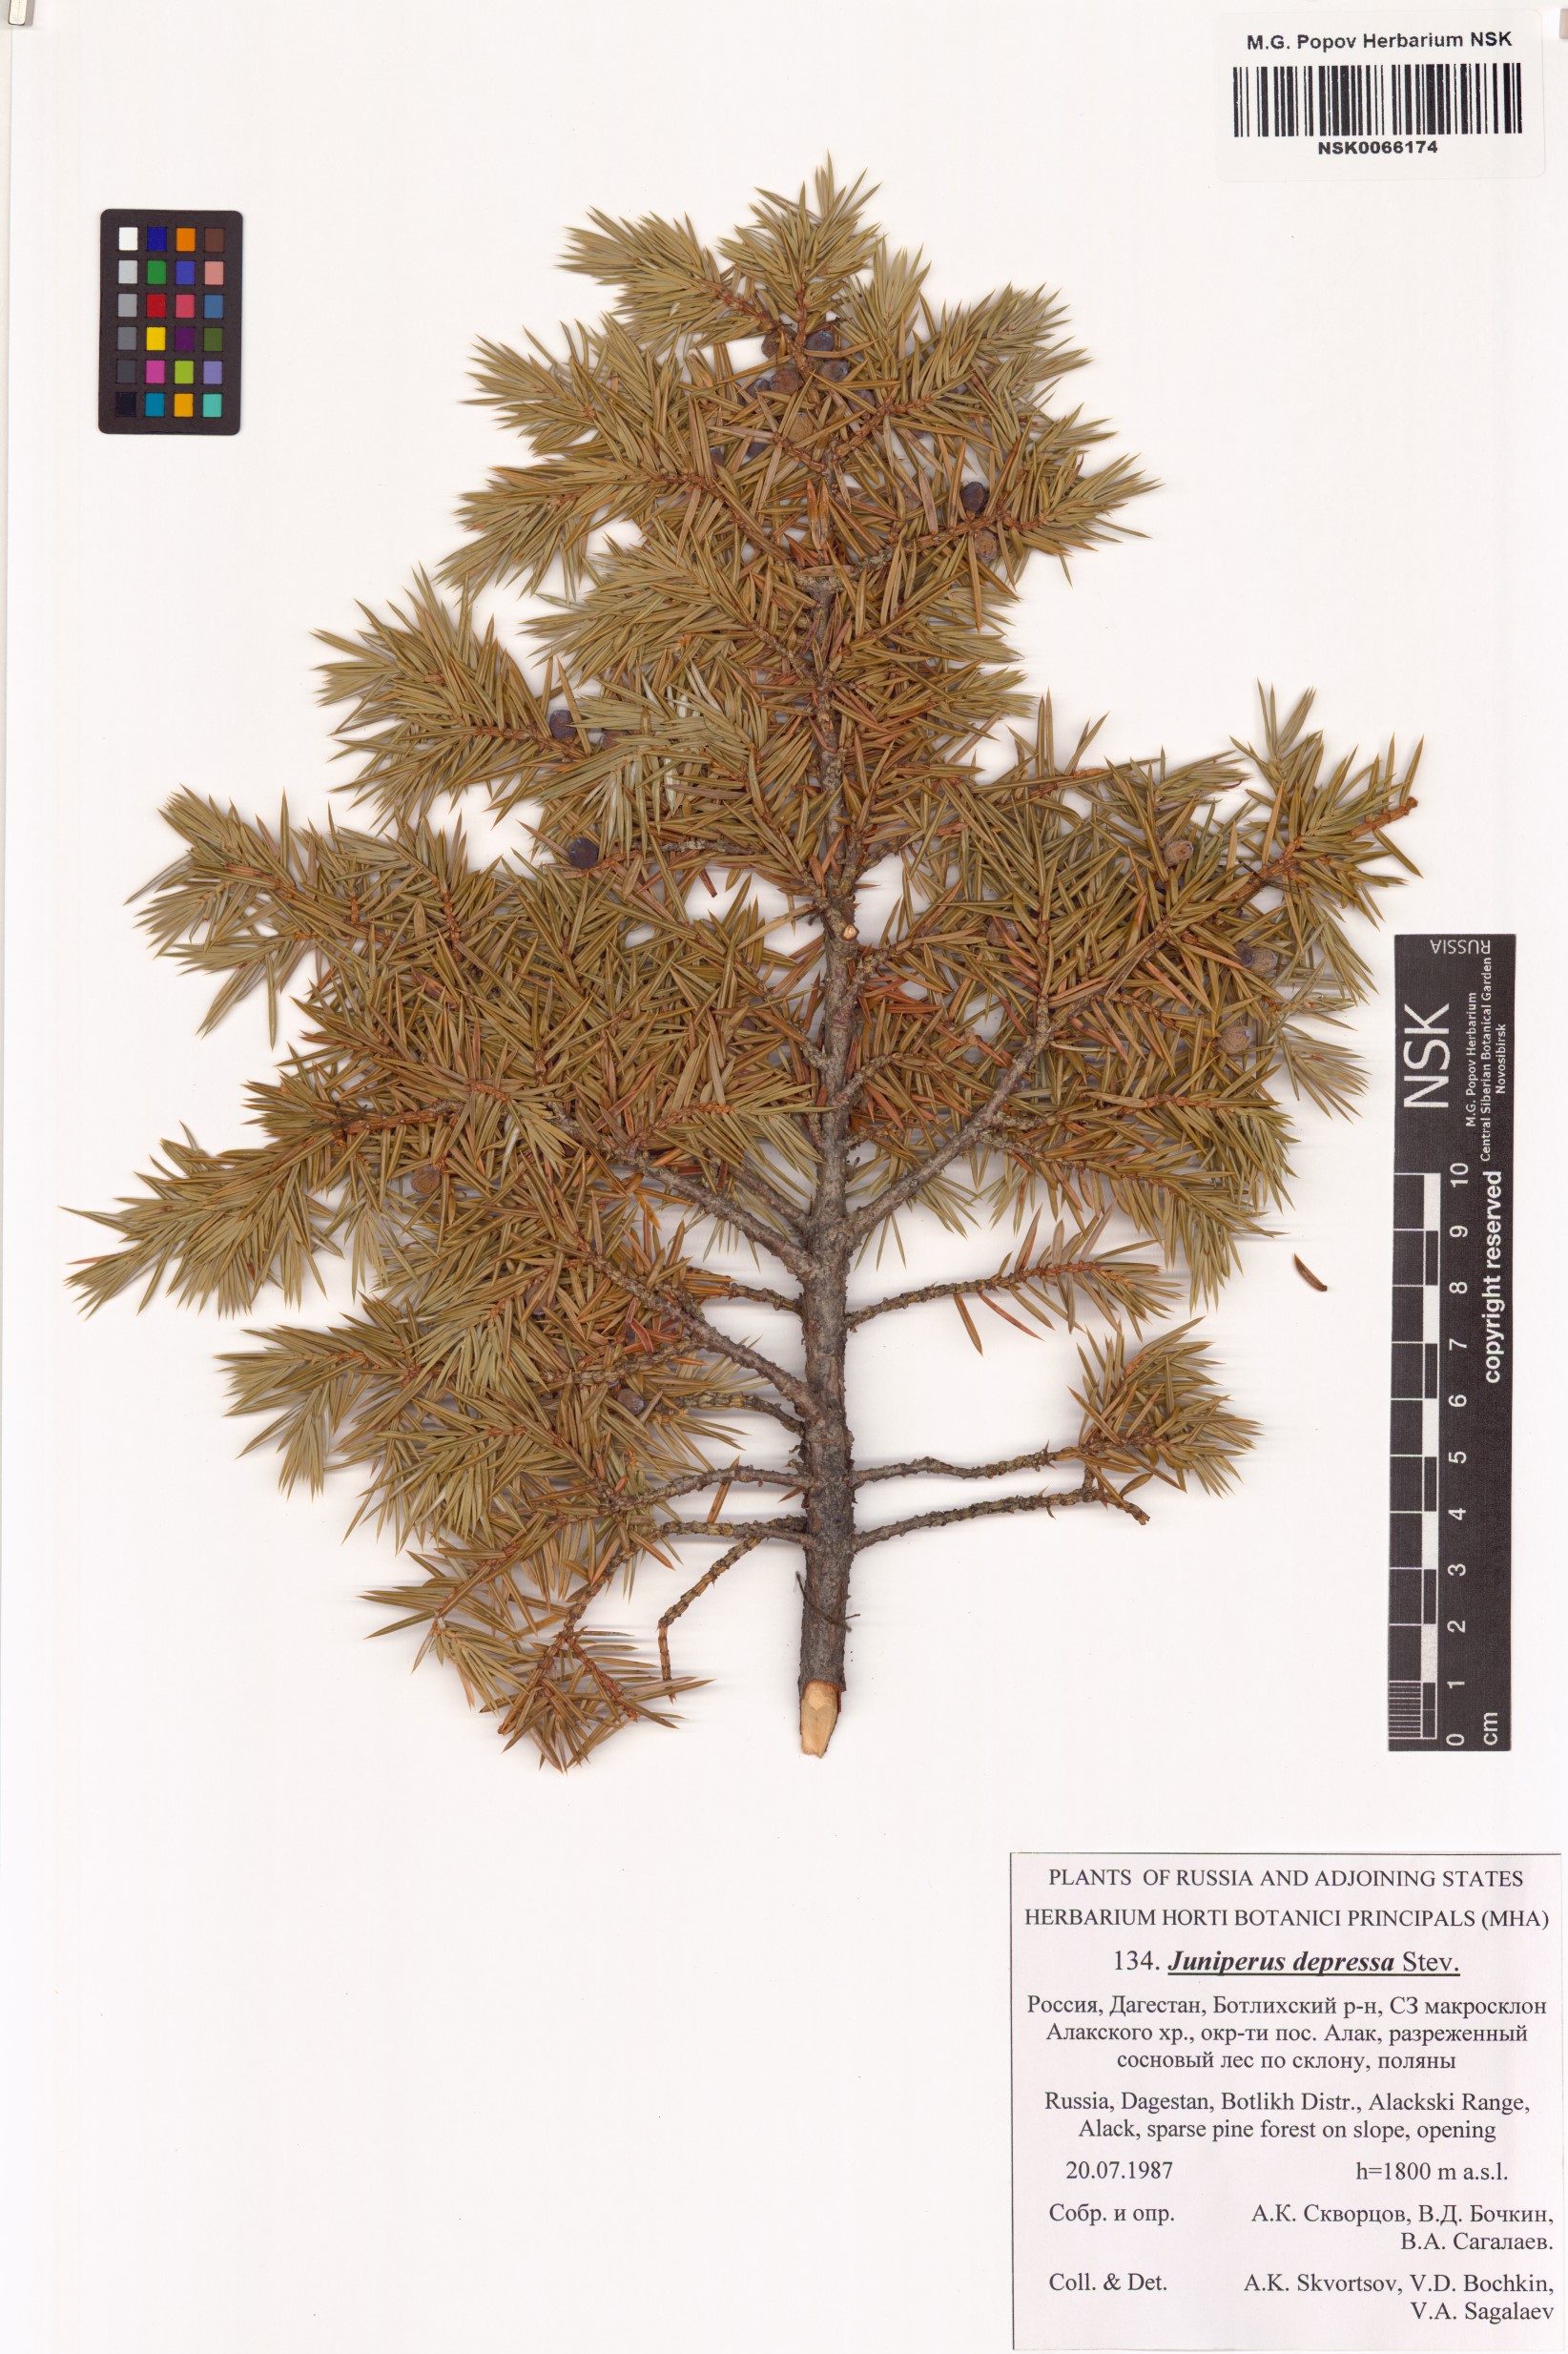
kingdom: Plantae
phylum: Tracheophyta
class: Pinopsida
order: Pinales
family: Cupressaceae
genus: Juniperus
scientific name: Juniperus communis
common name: Common juniper
